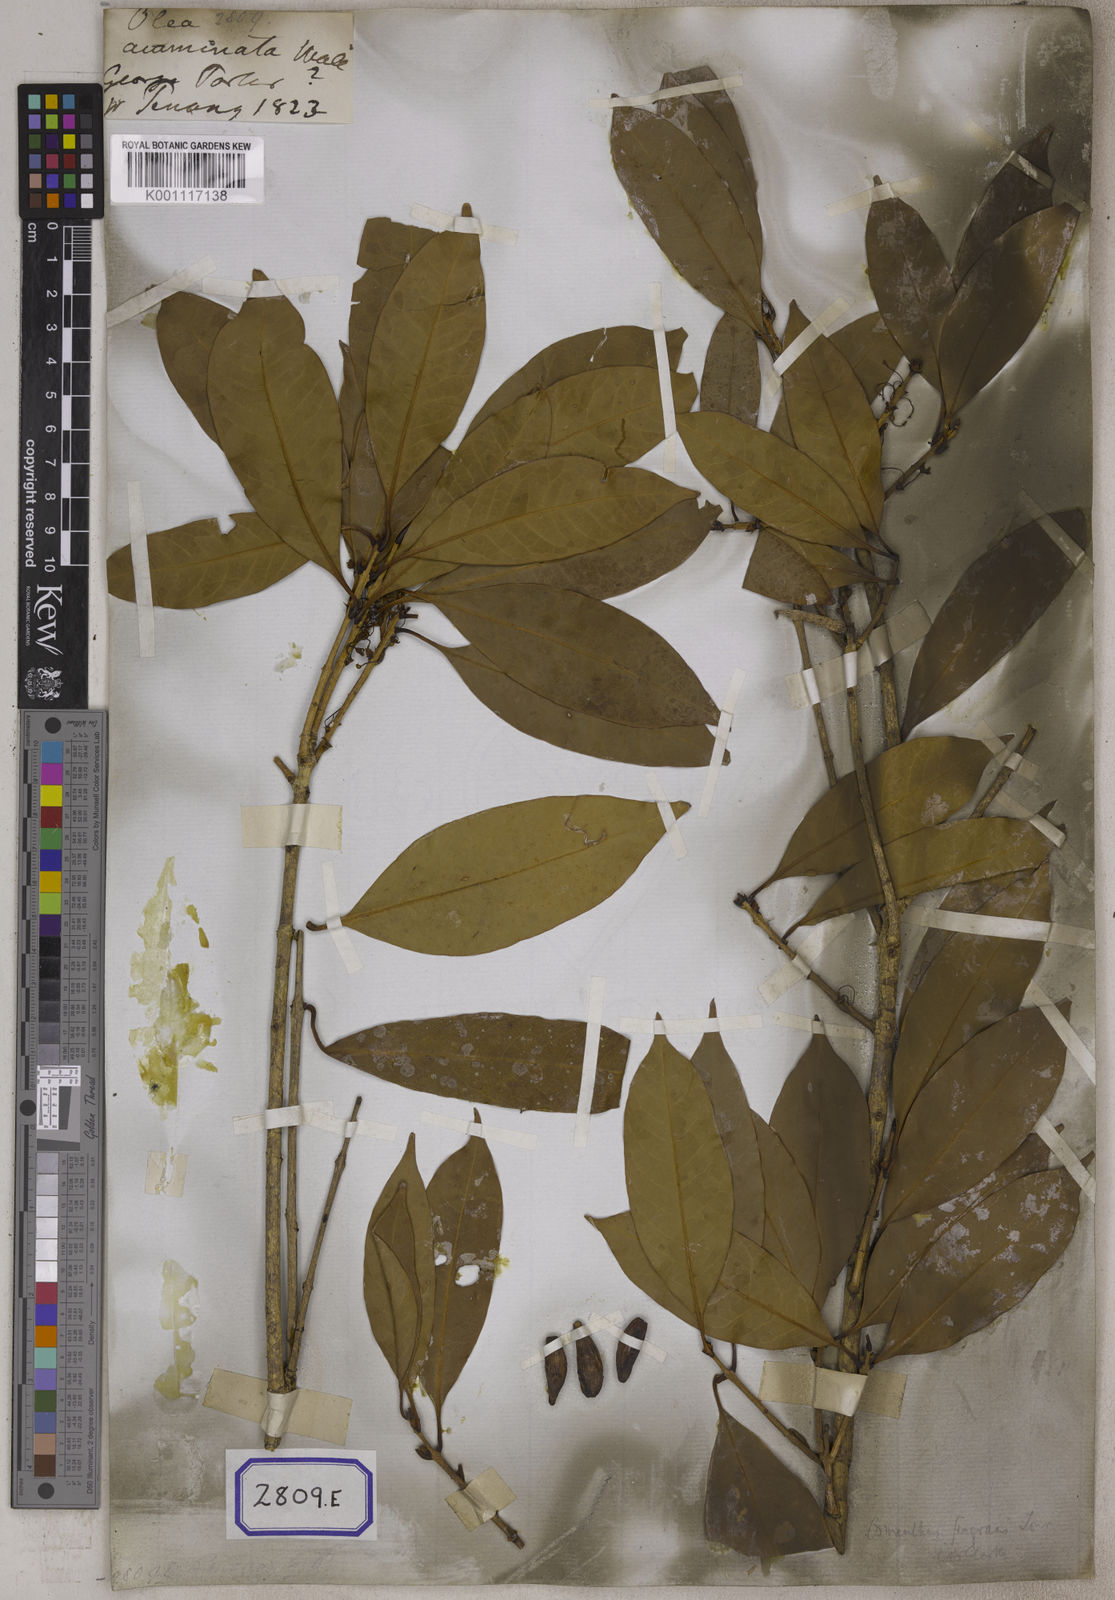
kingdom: Plantae
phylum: Tracheophyta
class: Magnoliopsida
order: Lamiales
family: Oleaceae
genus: Olea
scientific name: Olea
